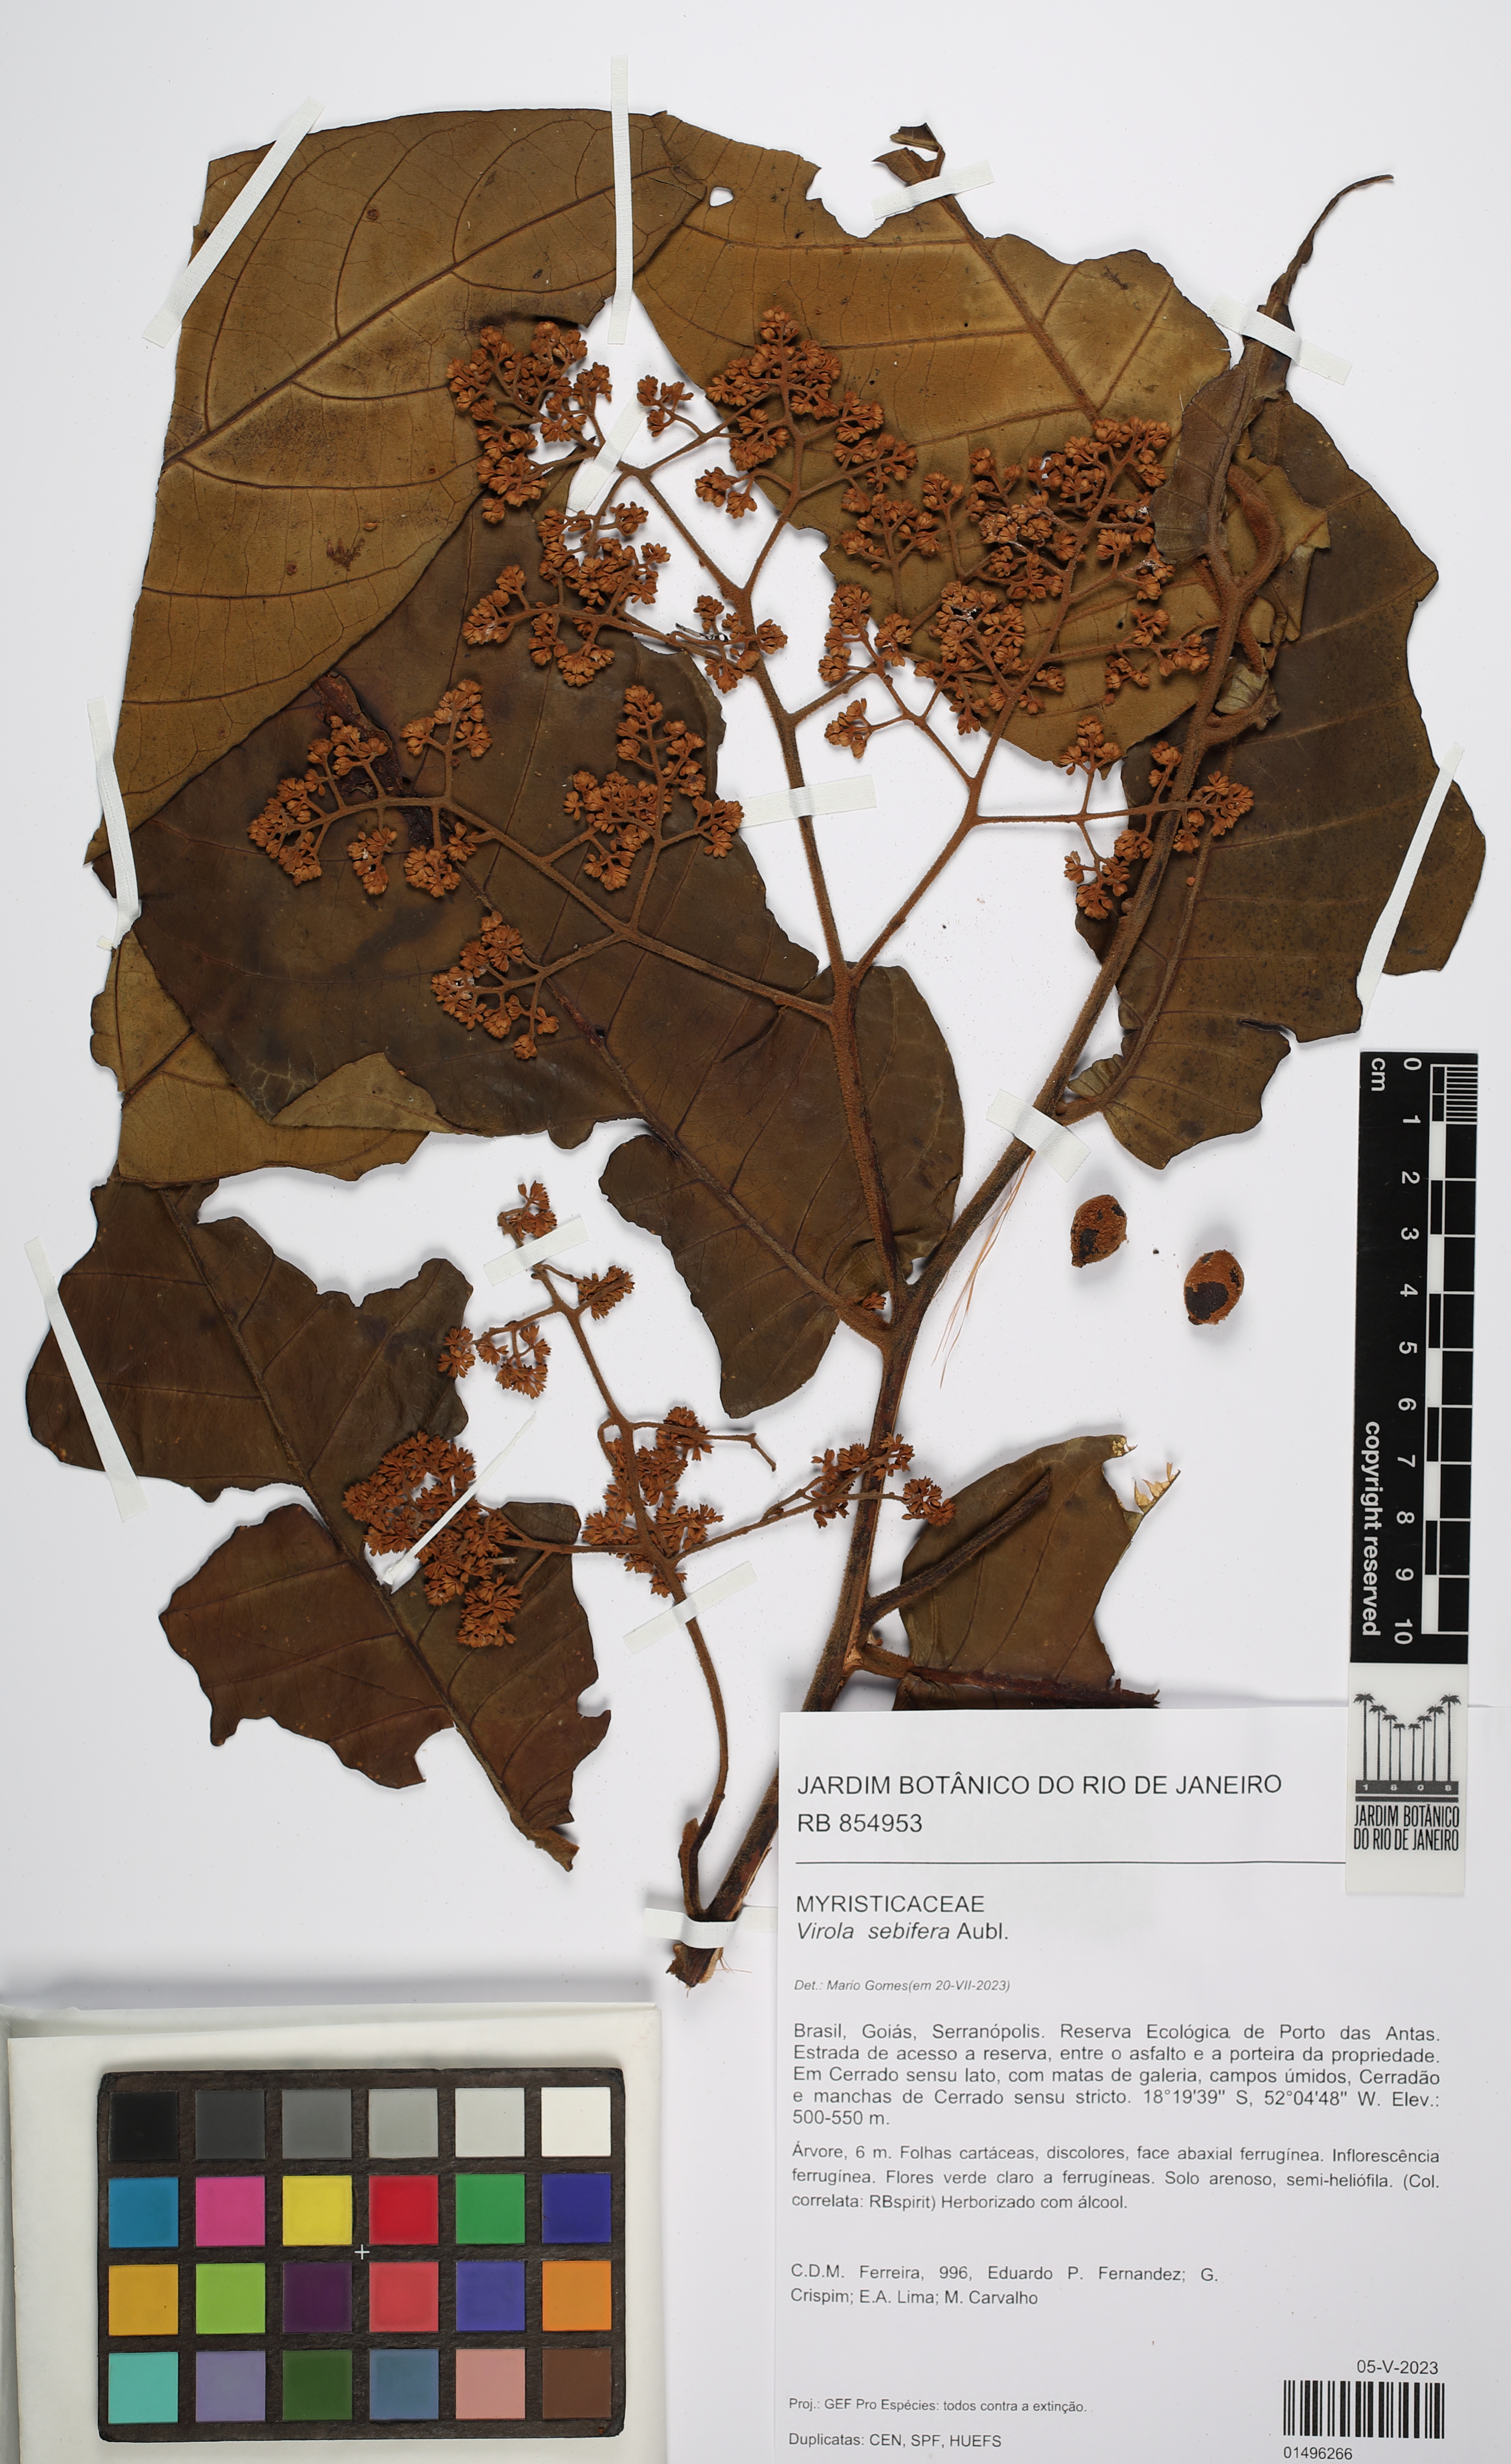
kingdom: Plantae
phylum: Tracheophyta
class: Magnoliopsida
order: Magnoliales
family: Myristicaceae
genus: Virola
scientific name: Virola sebifera
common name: Red ucuuba
